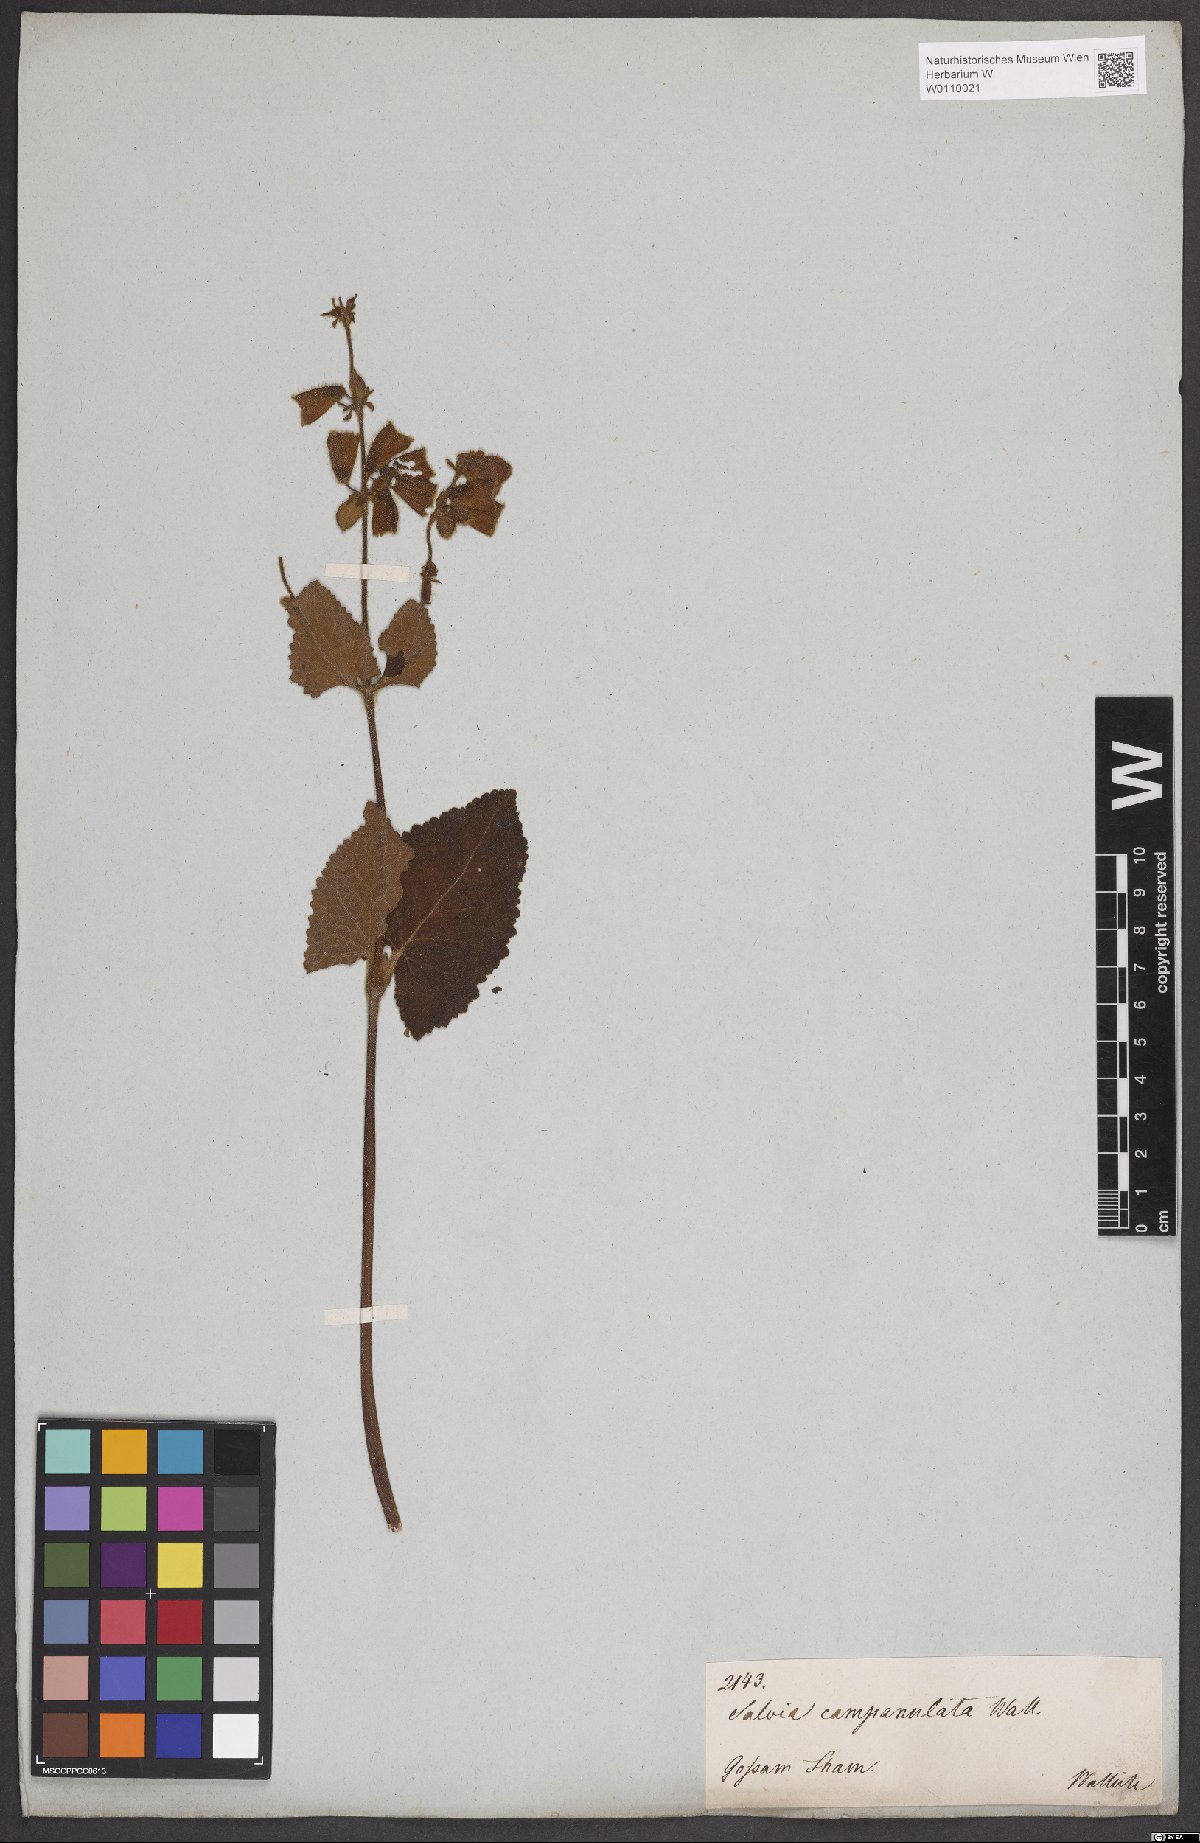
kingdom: Plantae
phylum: Tracheophyta
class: Magnoliopsida
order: Lamiales
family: Lamiaceae
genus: Salvia
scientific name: Salvia campanulata
